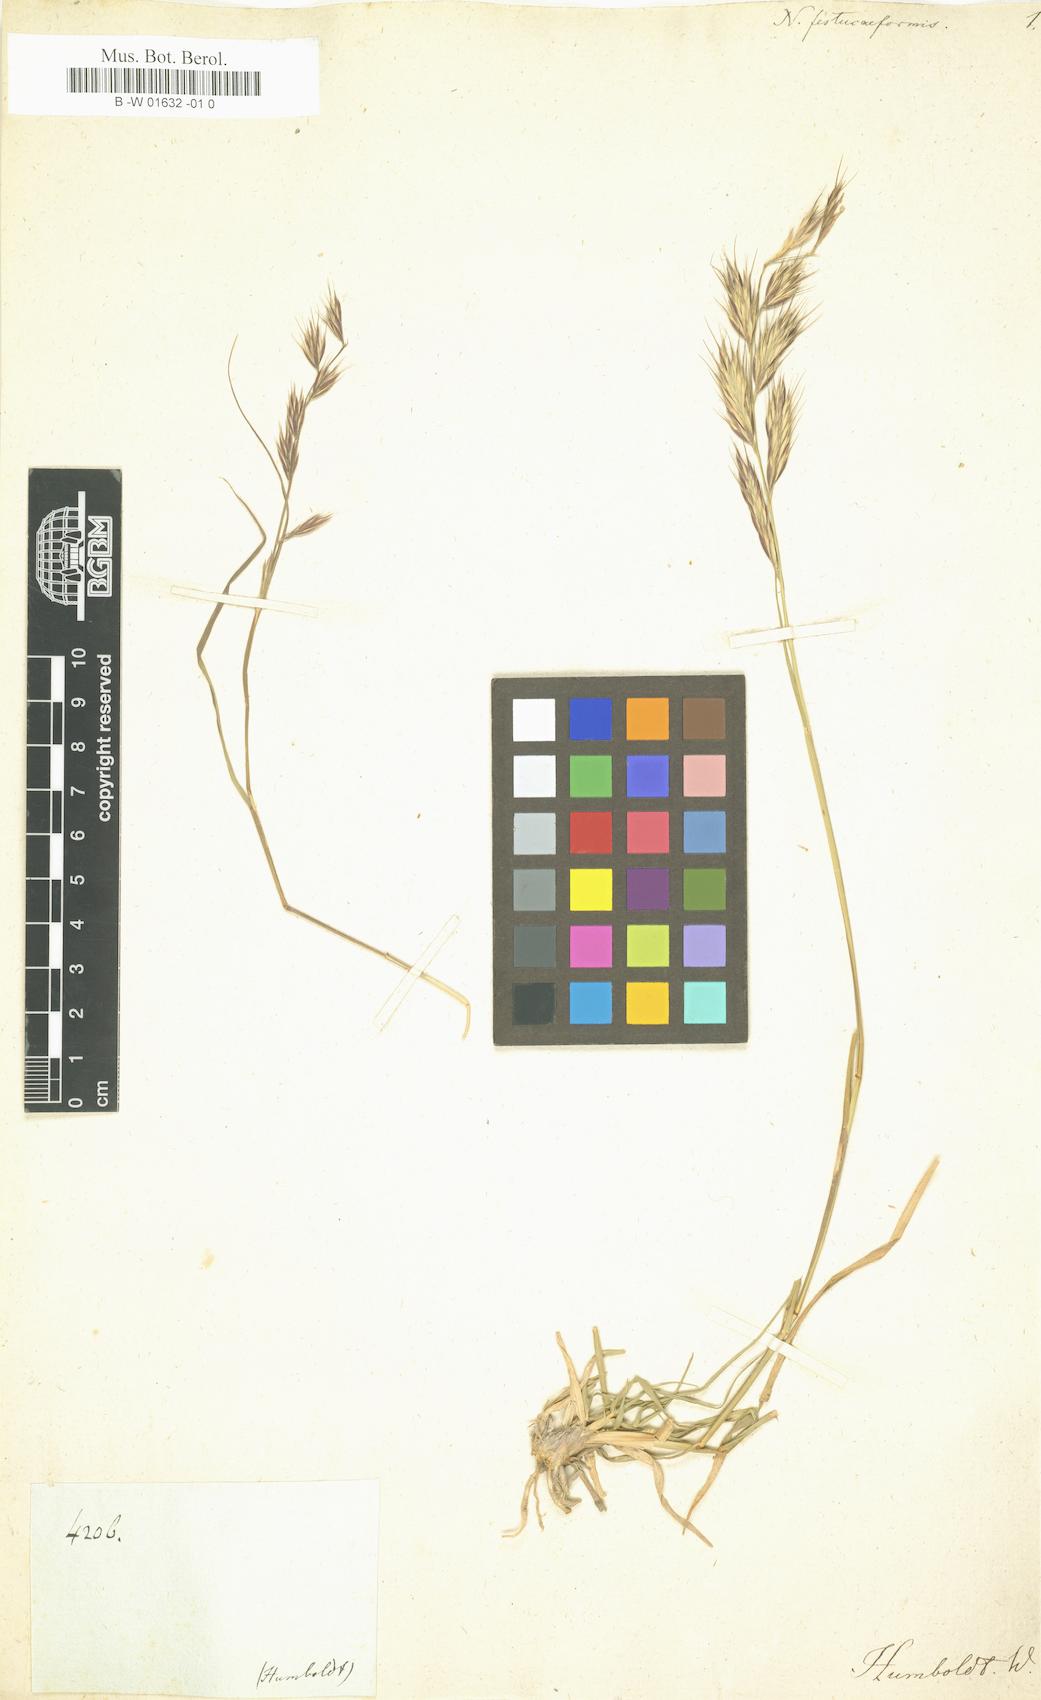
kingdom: Plantae
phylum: Tracheophyta
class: Liliopsida
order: Poales
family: Poaceae
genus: Bouteloua
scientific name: Bouteloua radicosa
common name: Purple grama
